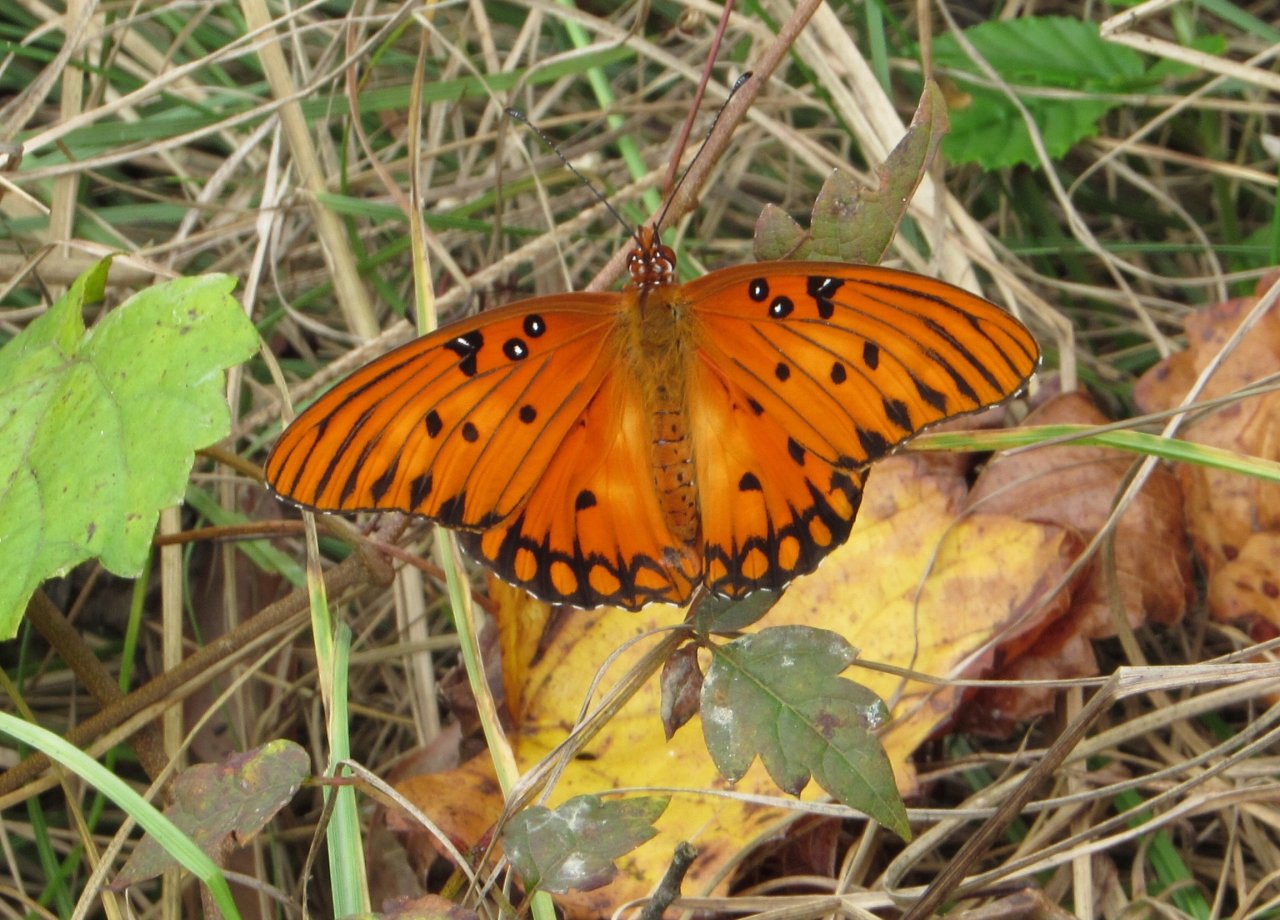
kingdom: Animalia
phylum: Arthropoda
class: Insecta
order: Lepidoptera
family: Nymphalidae
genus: Dione
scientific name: Dione vanillae
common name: Gulf Fritillary
